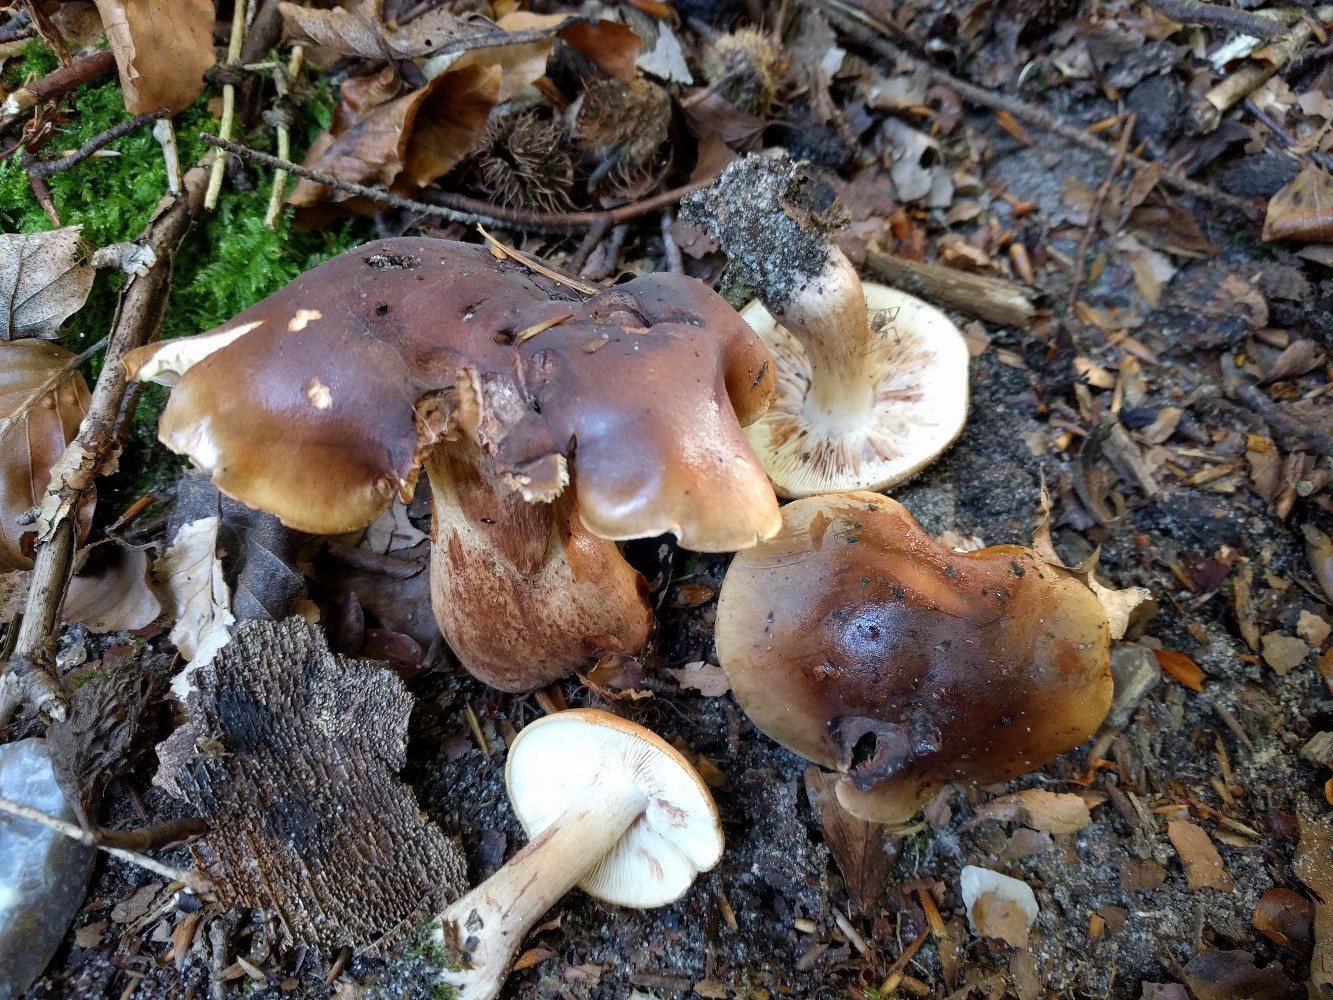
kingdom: Fungi
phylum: Basidiomycota
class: Agaricomycetes
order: Agaricales
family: Tricholomataceae
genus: Tricholoma
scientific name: Tricholoma ustale
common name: sveden ridderhat
